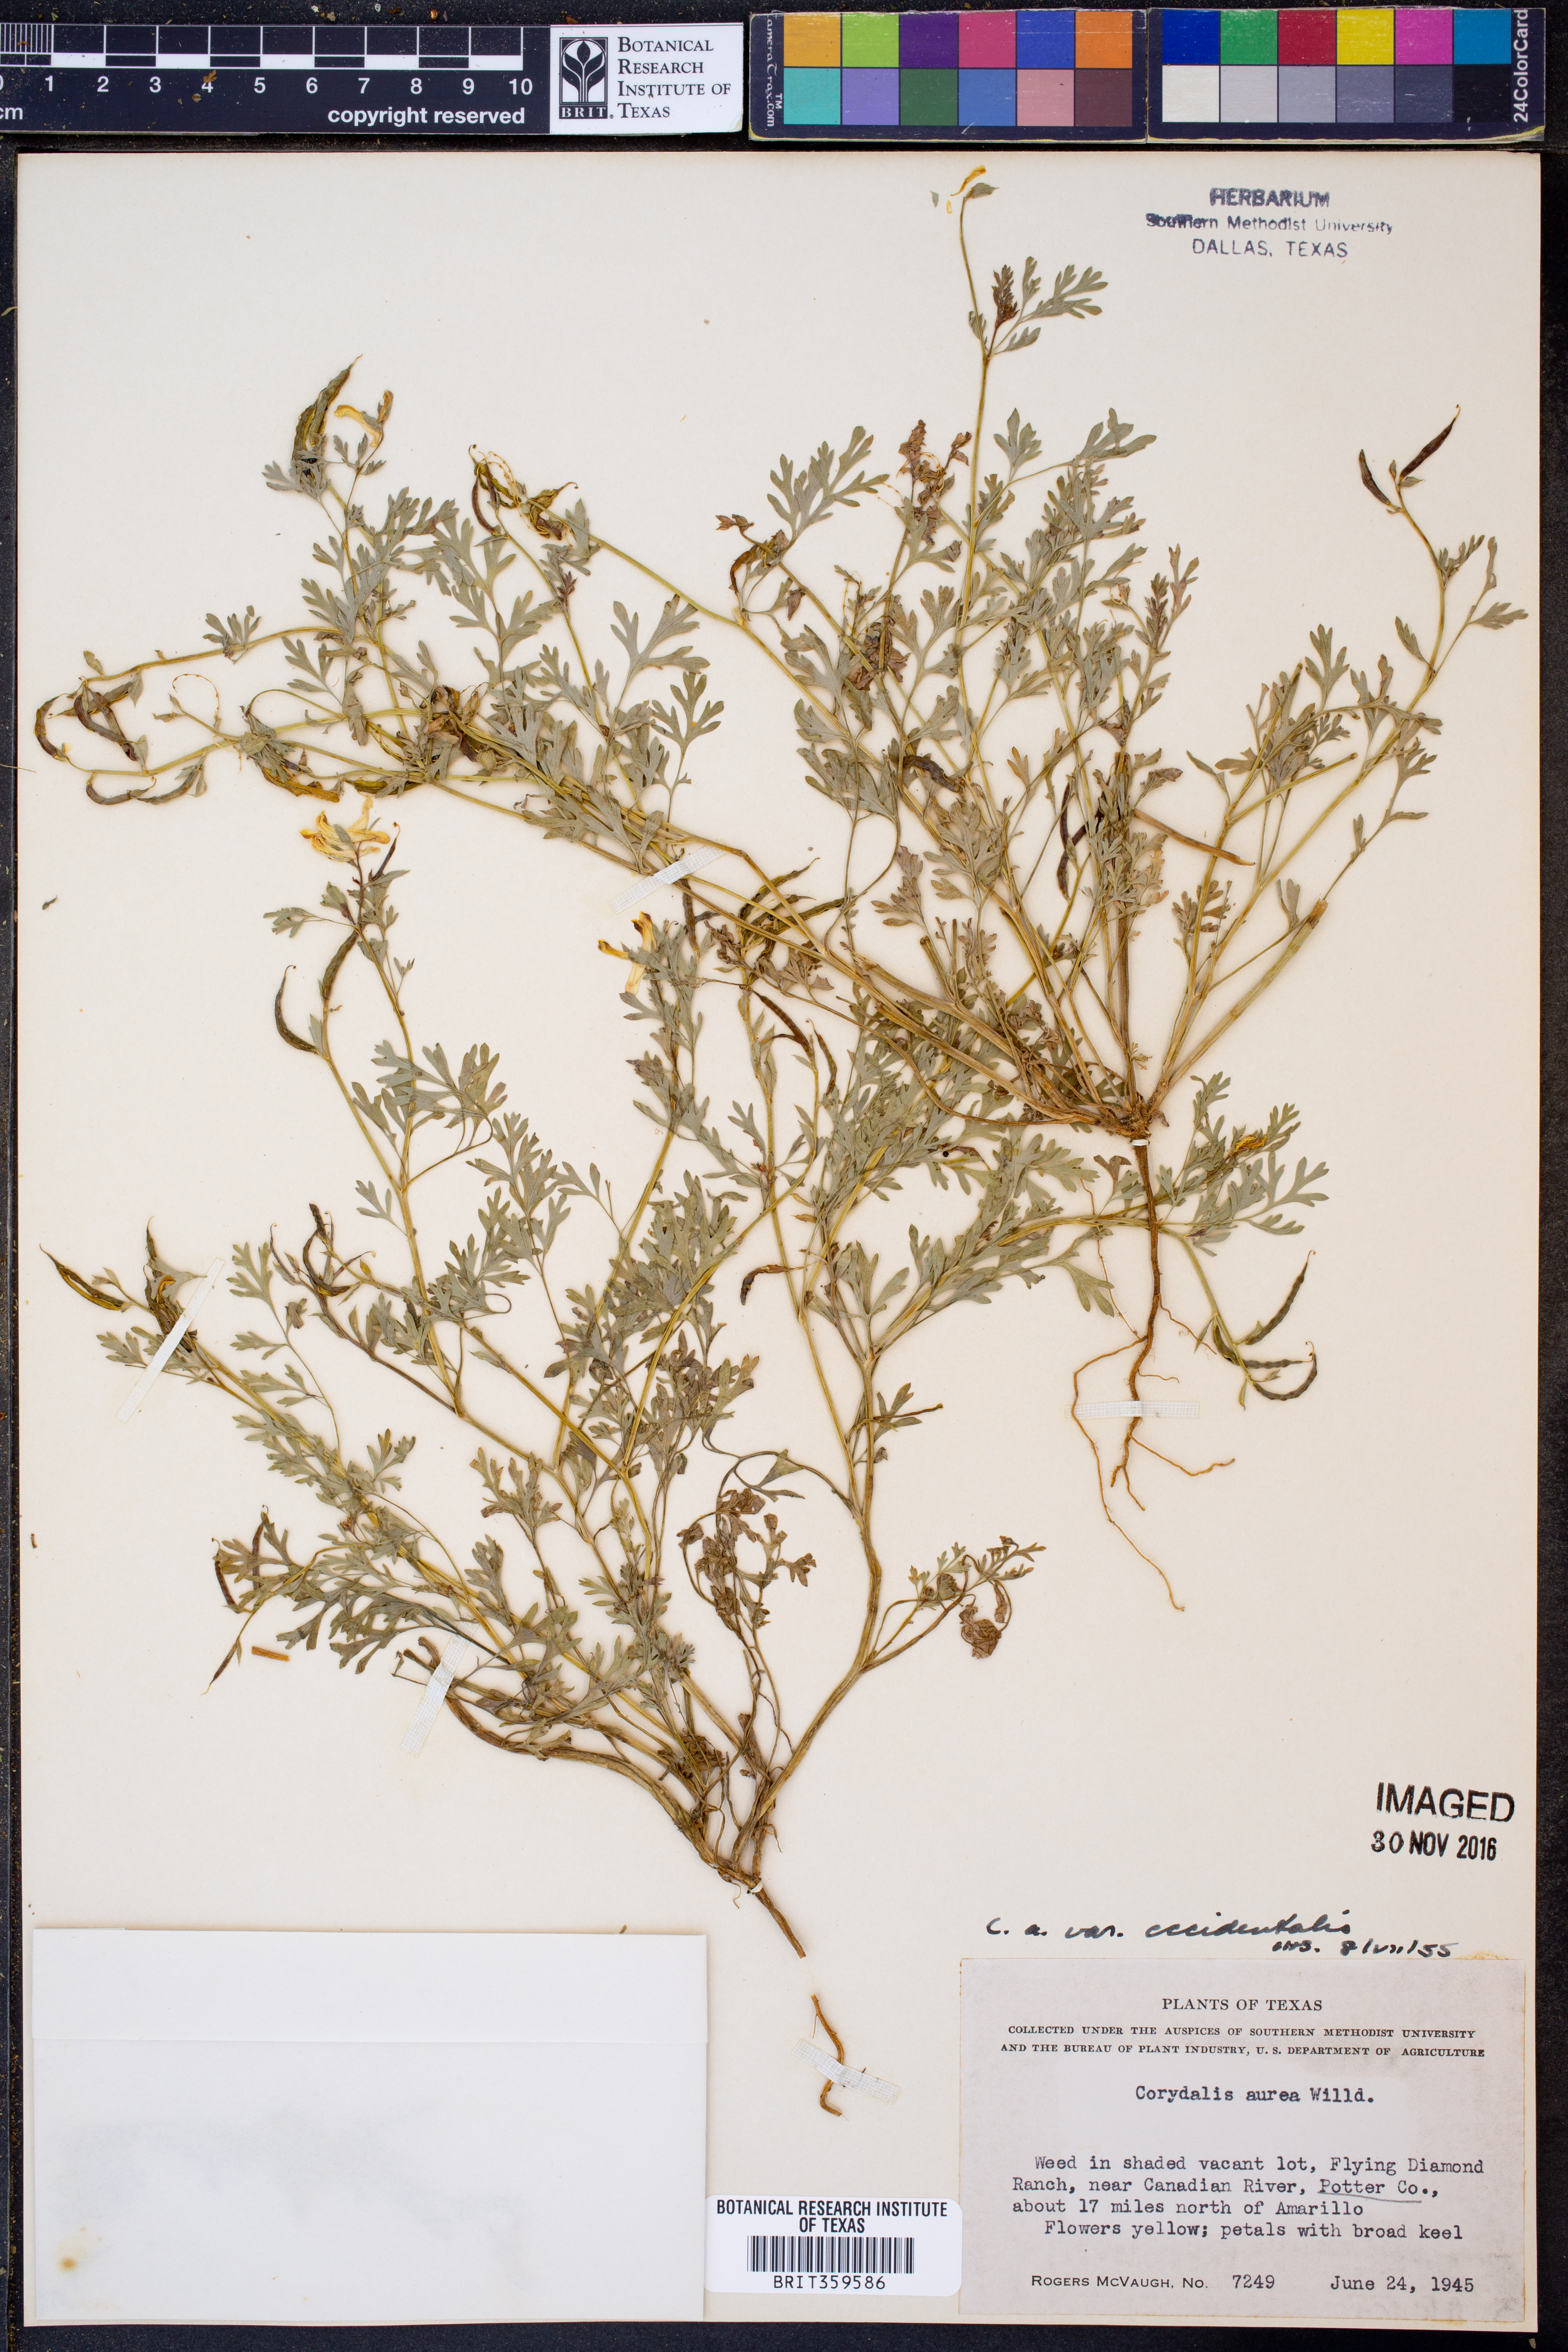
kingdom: Plantae
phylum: Tracheophyta
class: Magnoliopsida
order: Ranunculales
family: Papaveraceae
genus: Corydalis
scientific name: Corydalis curvisiliqua
